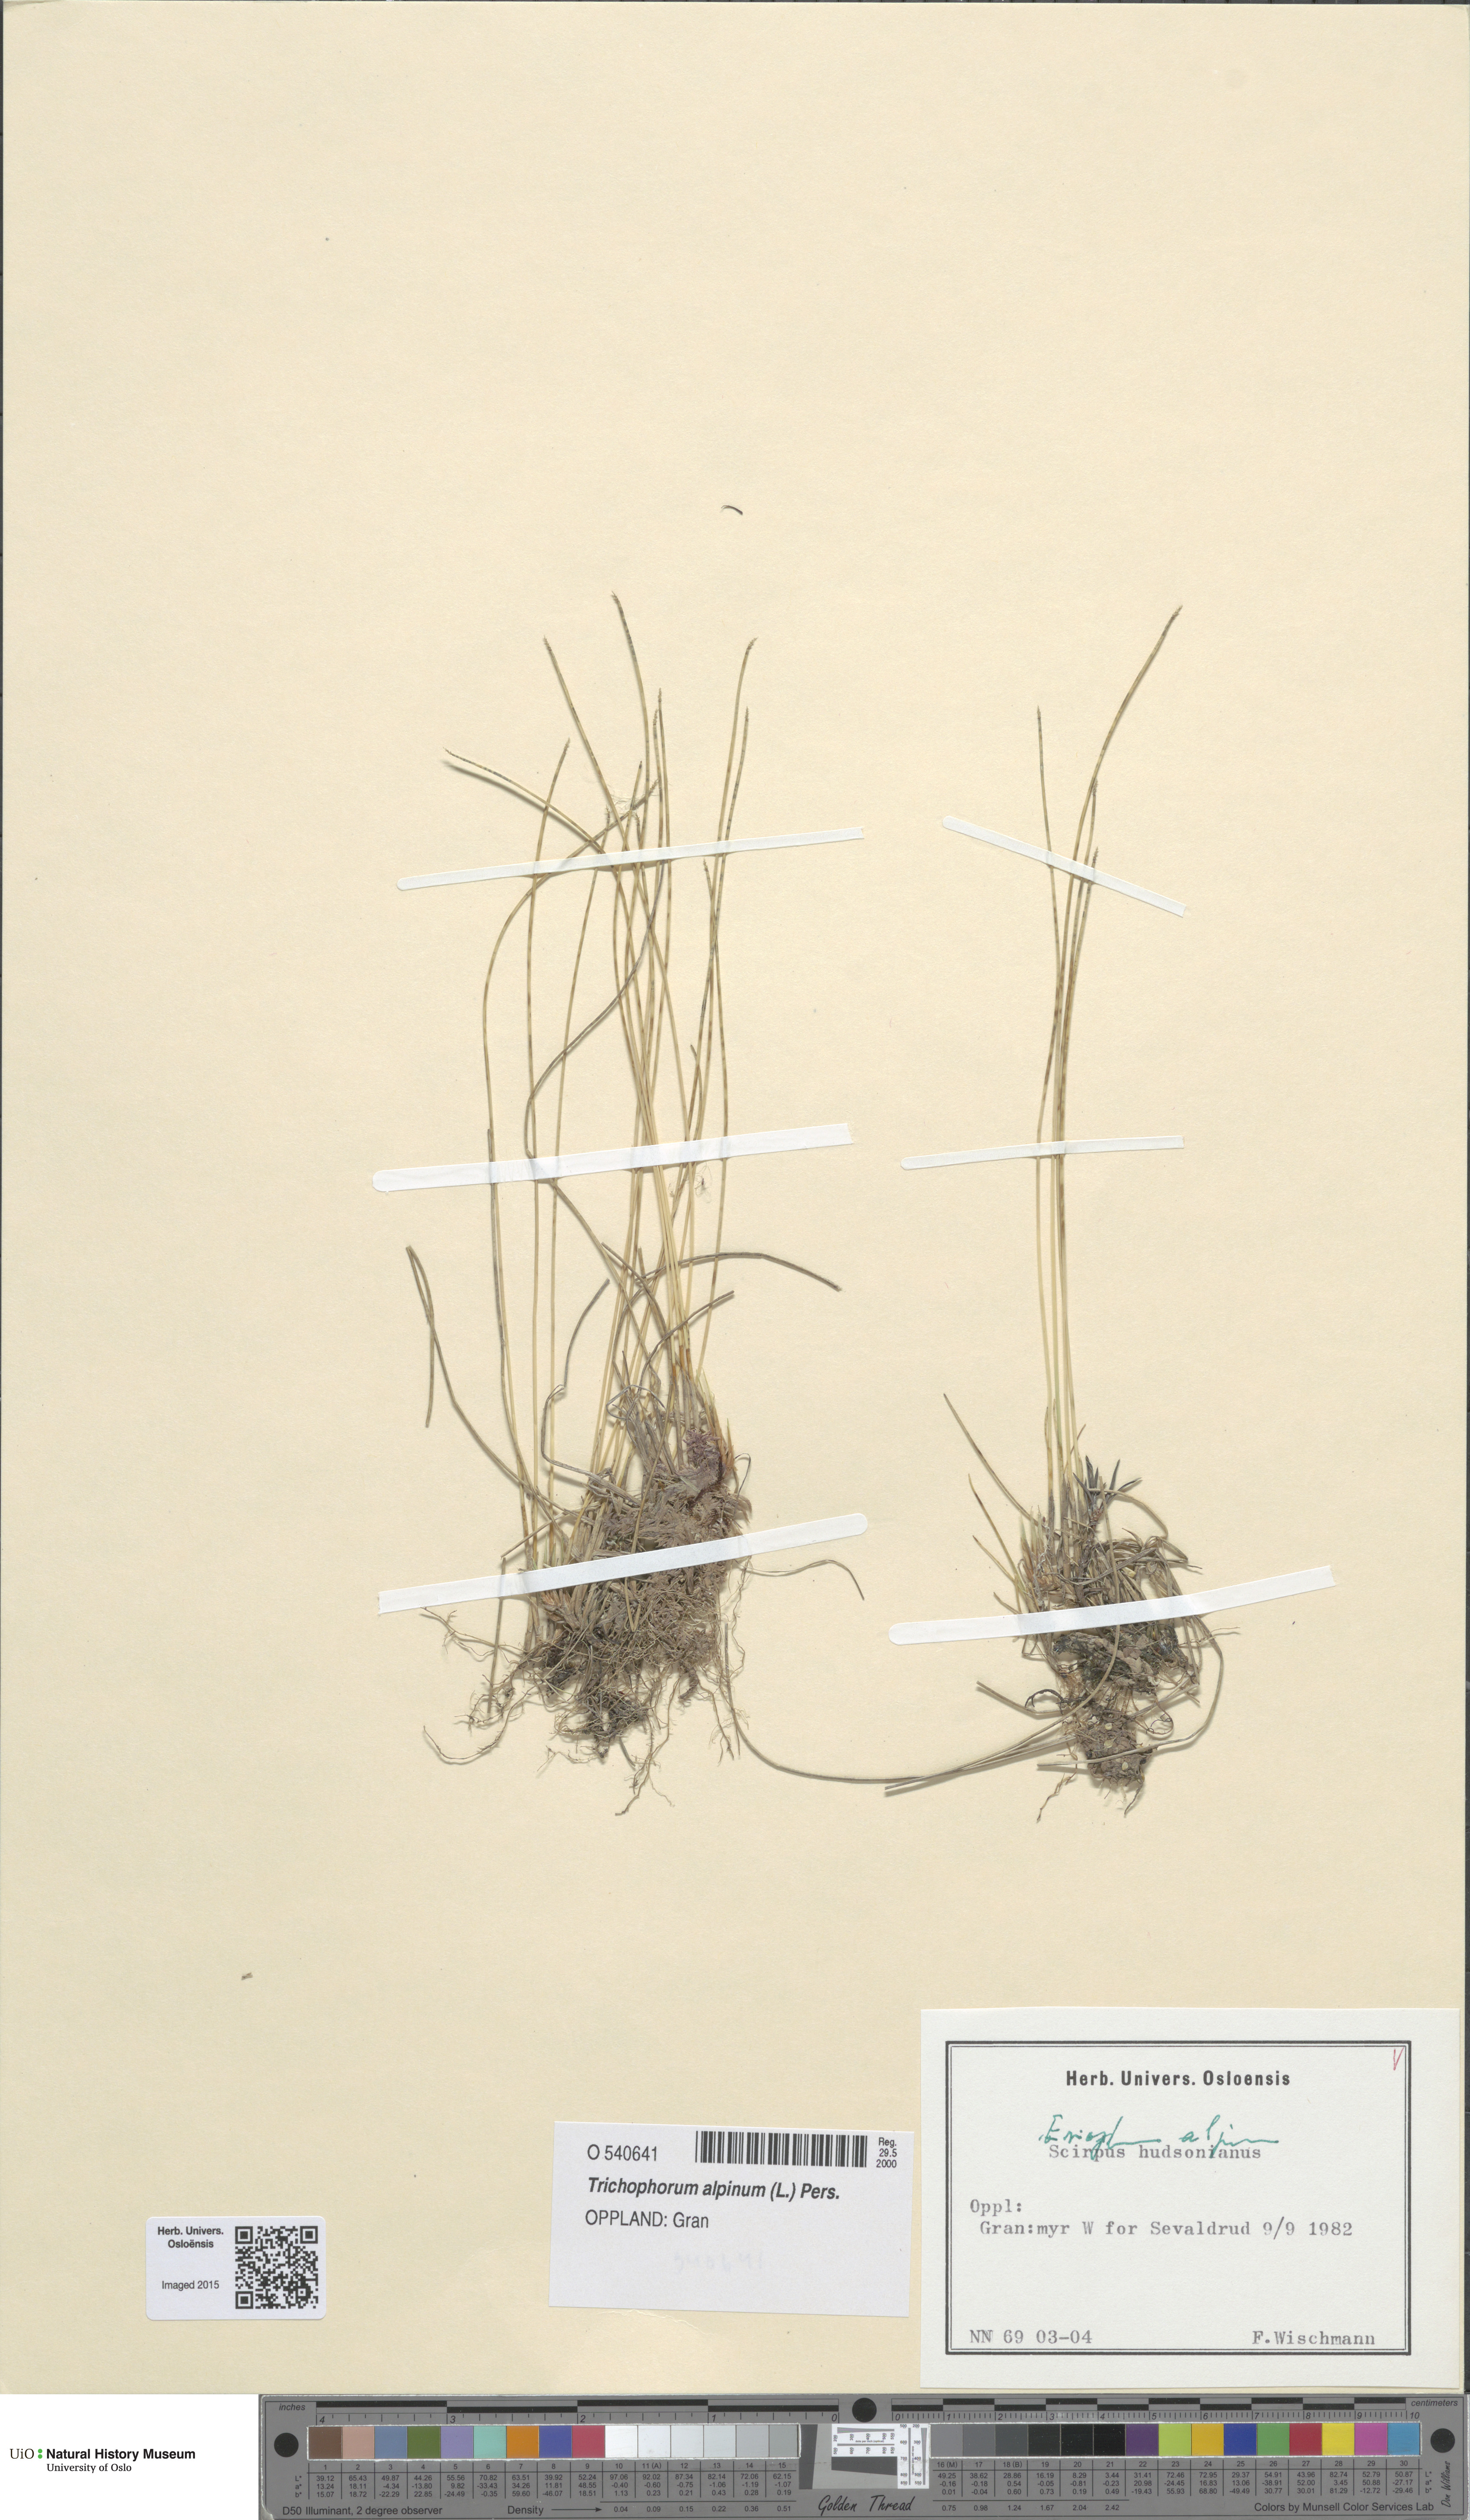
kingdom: Plantae
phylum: Tracheophyta
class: Liliopsida
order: Poales
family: Cyperaceae
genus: Trichophorum
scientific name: Trichophorum alpinum
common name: Alpine bulrush
